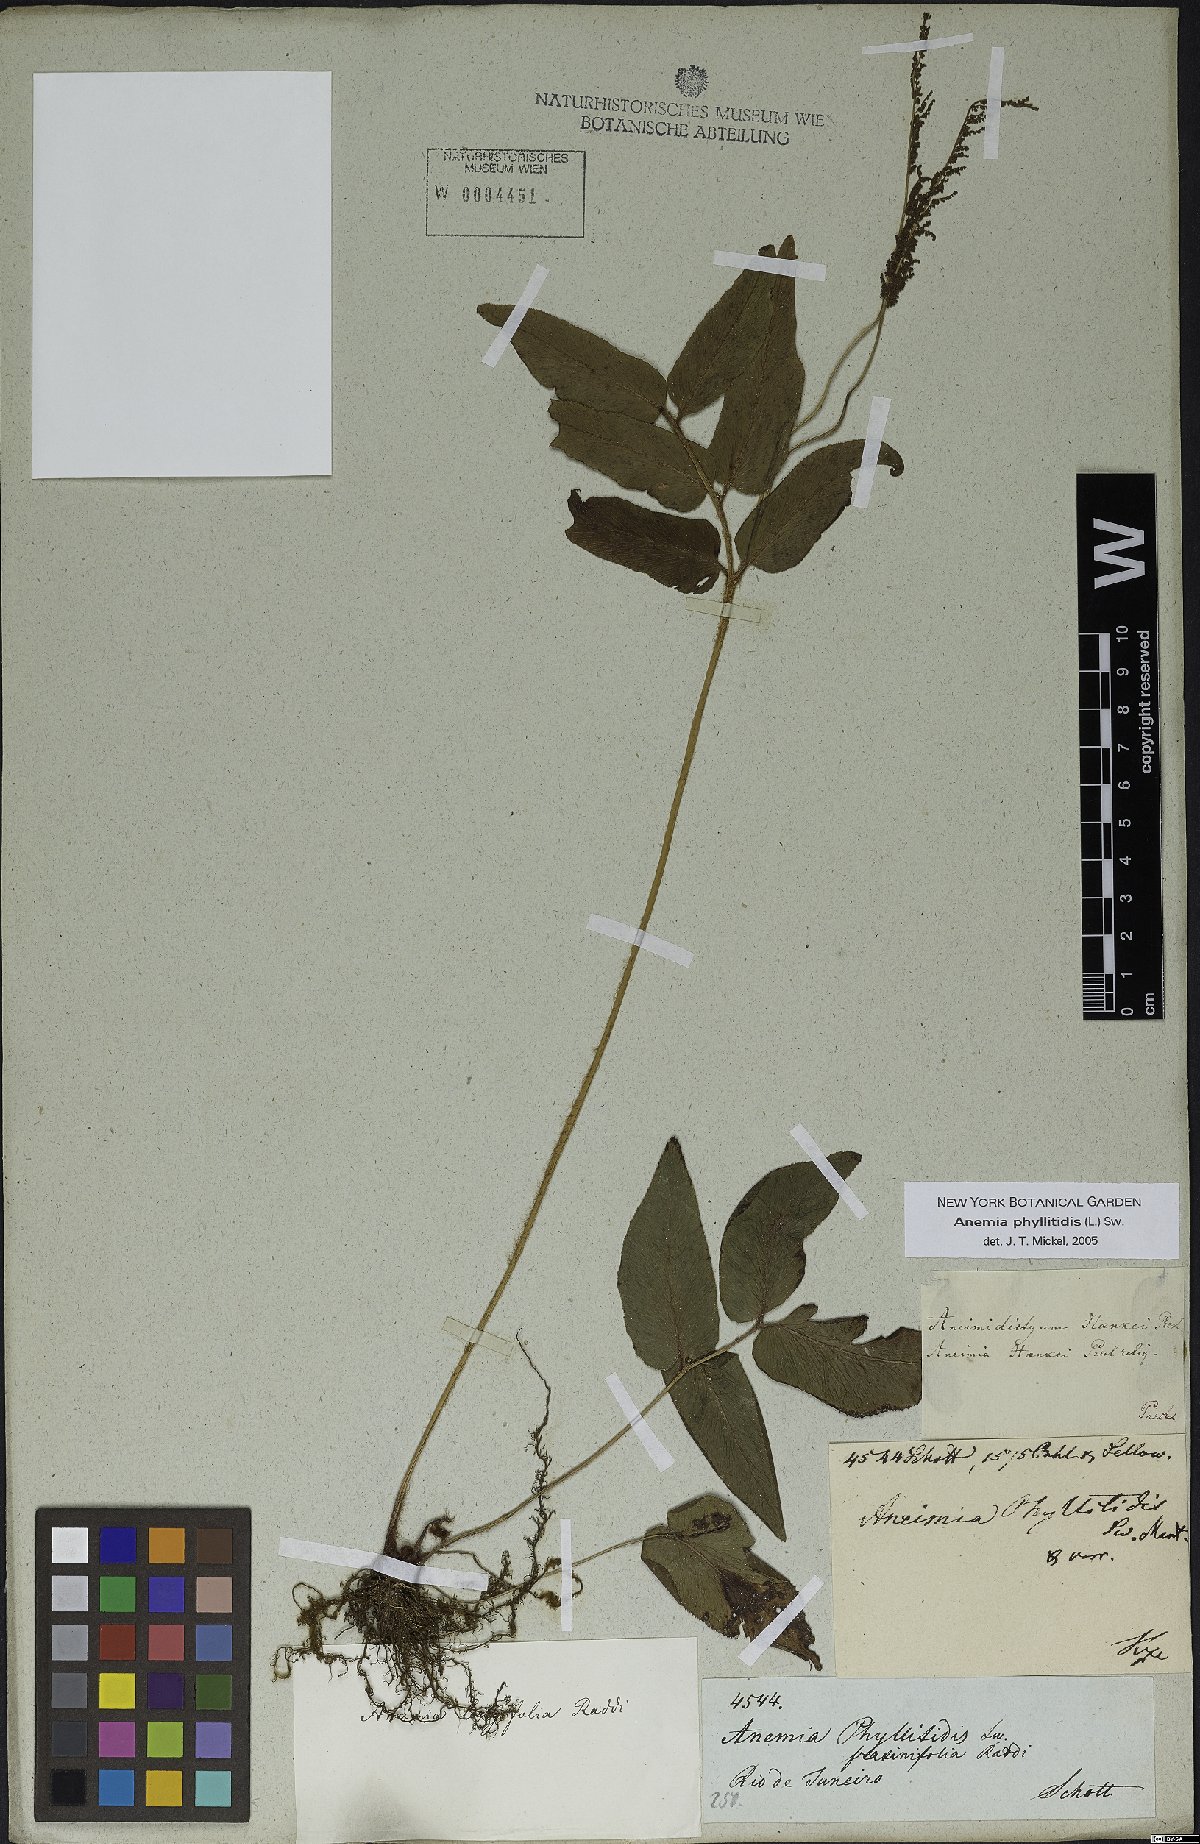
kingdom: Plantae
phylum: Tracheophyta
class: Polypodiopsida
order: Schizaeales
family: Anemiaceae
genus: Anemia
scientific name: Anemia phyllitidis
